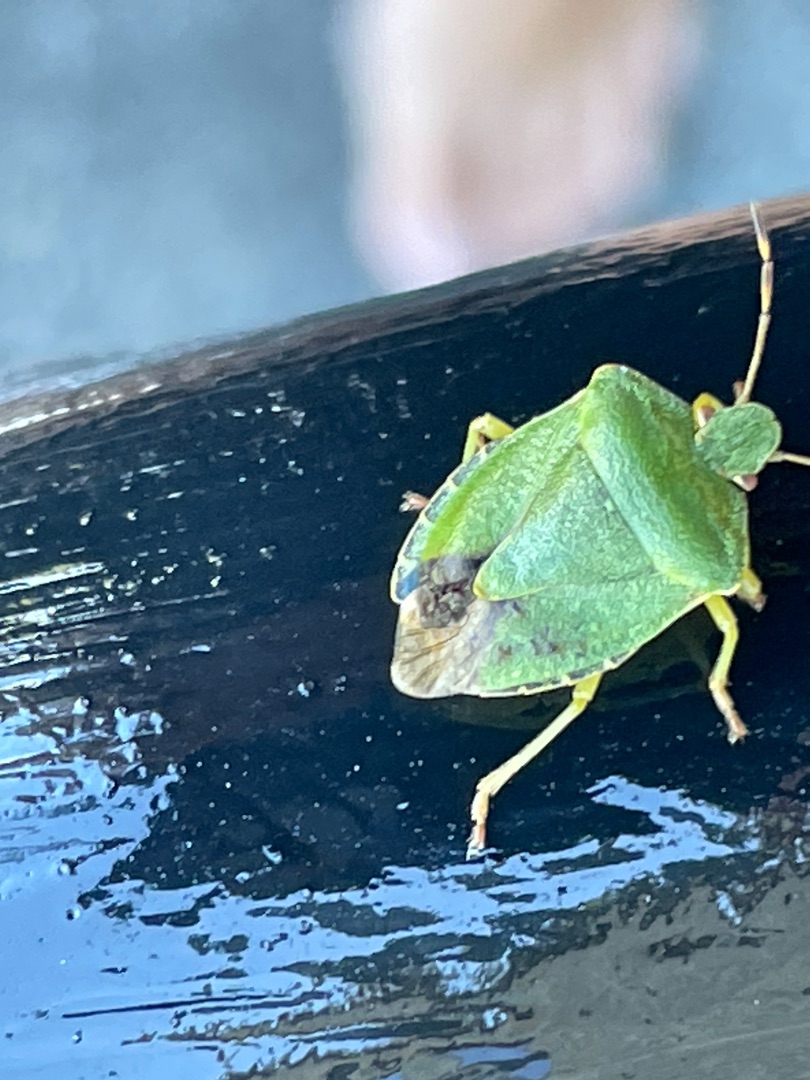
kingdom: Animalia
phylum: Arthropoda
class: Insecta
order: Hemiptera
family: Pentatomidae
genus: Palomena
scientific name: Palomena prasina
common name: Grøn bredtæge
